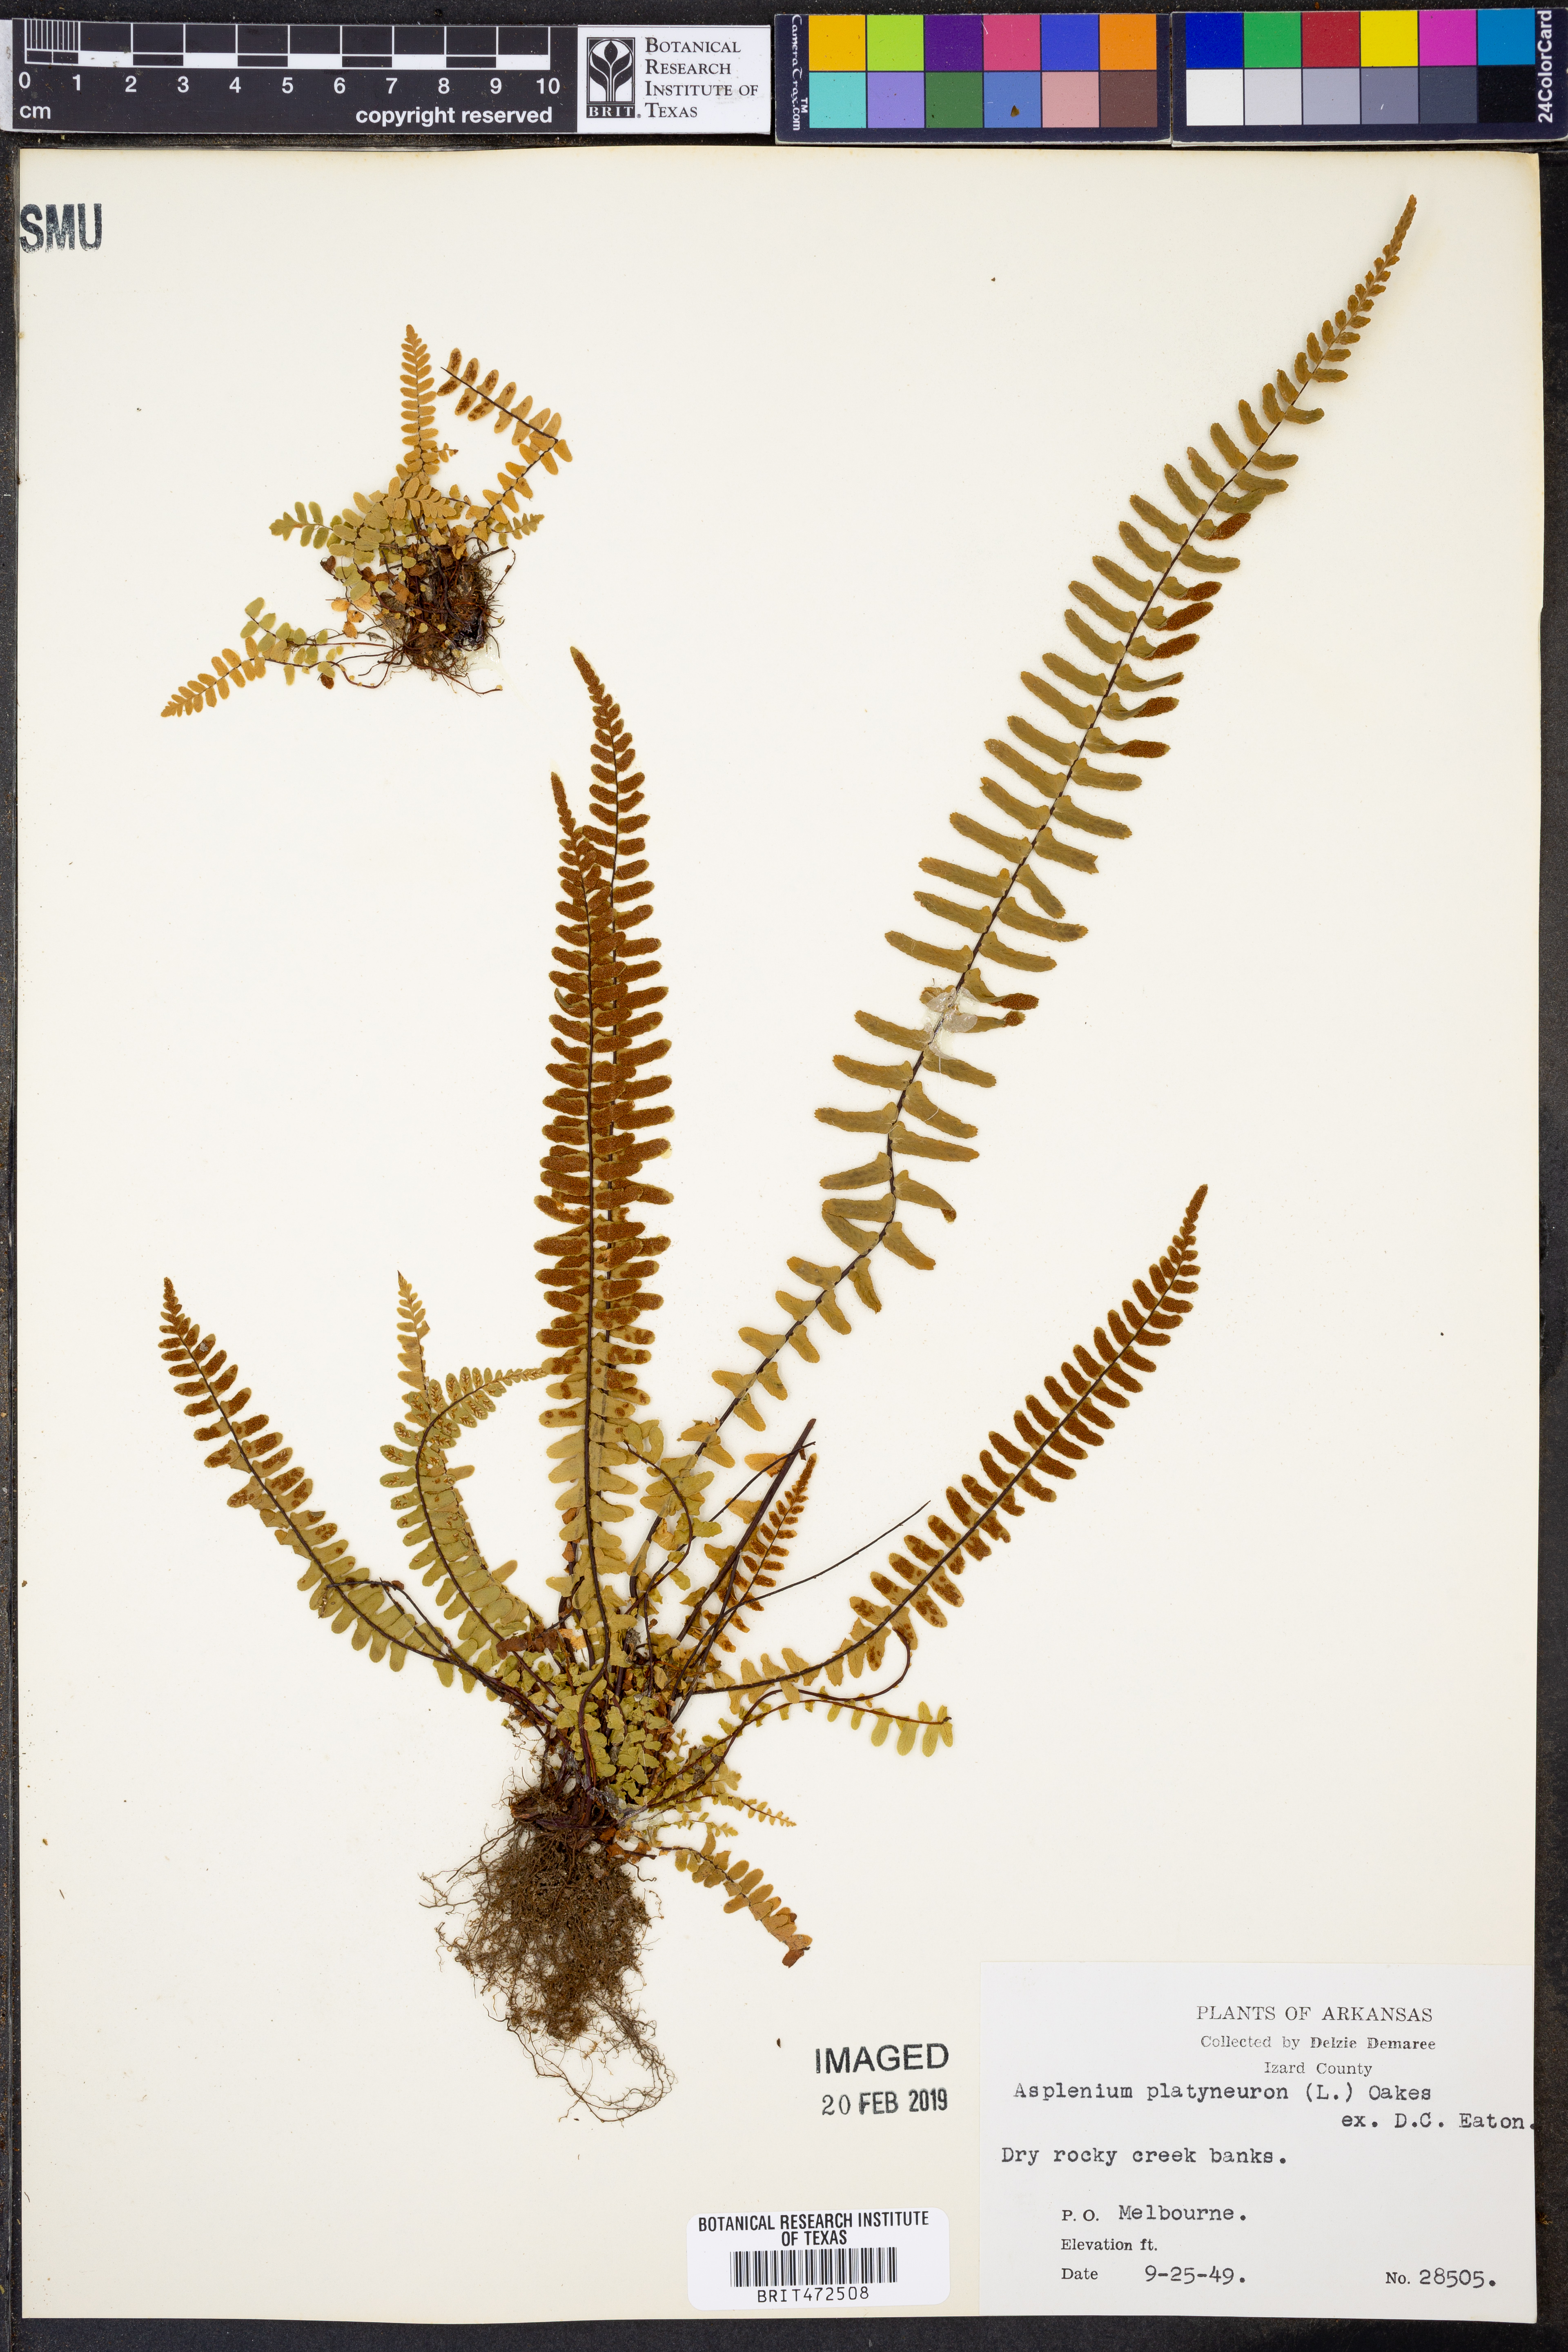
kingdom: Plantae
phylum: Tracheophyta
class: Polypodiopsida
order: Polypodiales
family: Aspleniaceae
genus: Asplenium
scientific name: Asplenium platyneuron
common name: Ebony spleenwort
